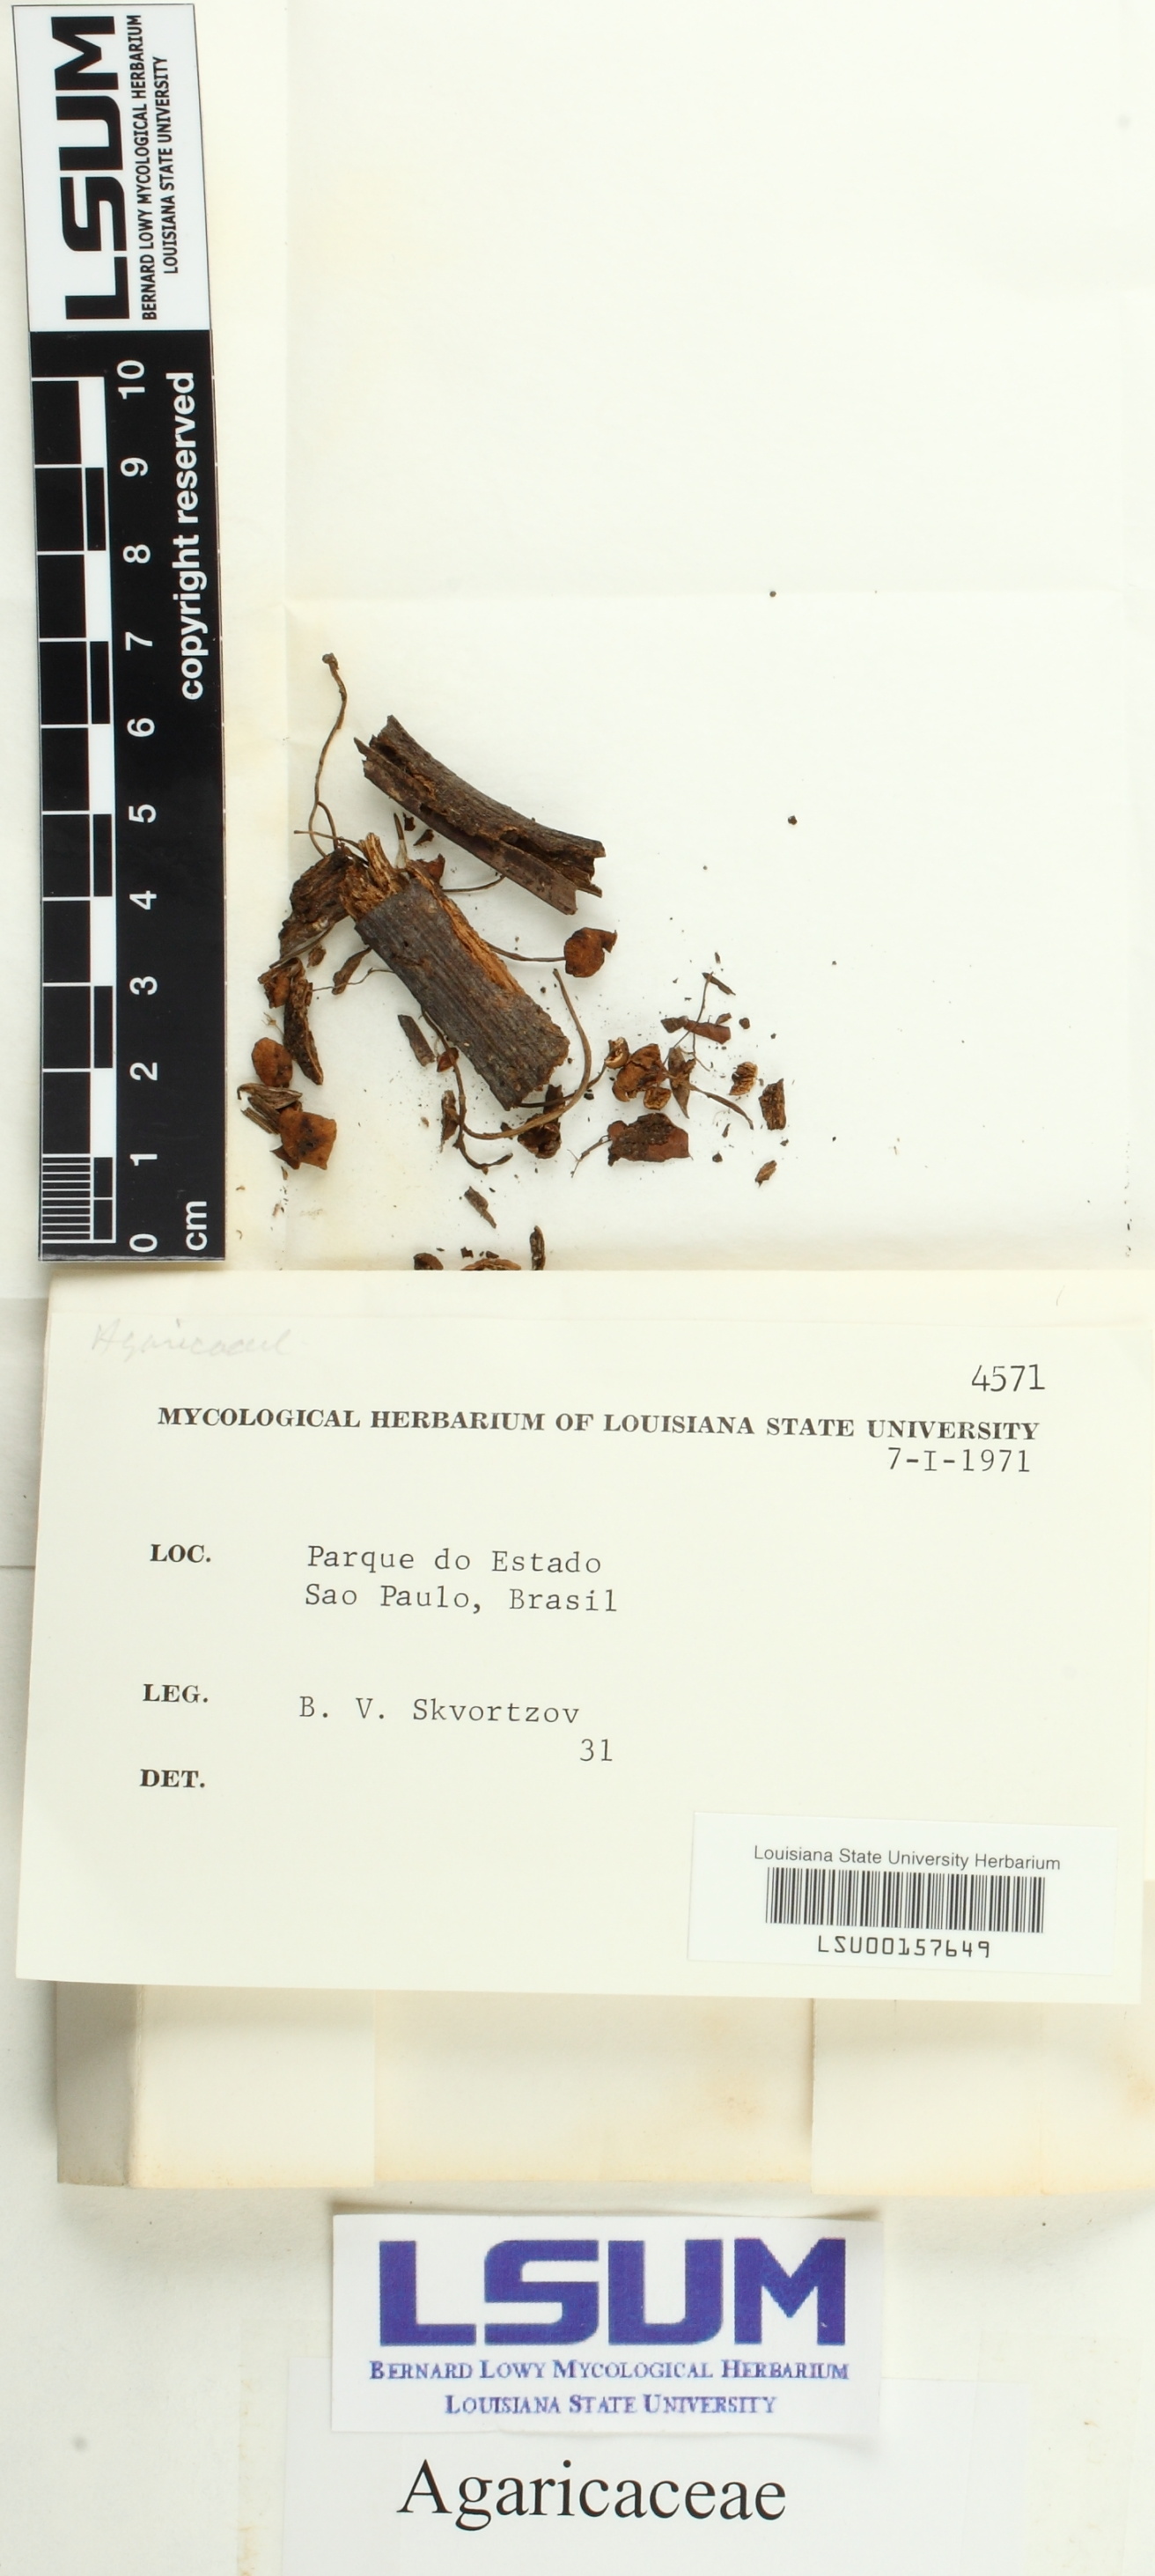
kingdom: Fungi
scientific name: Fungi
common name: Fungi
